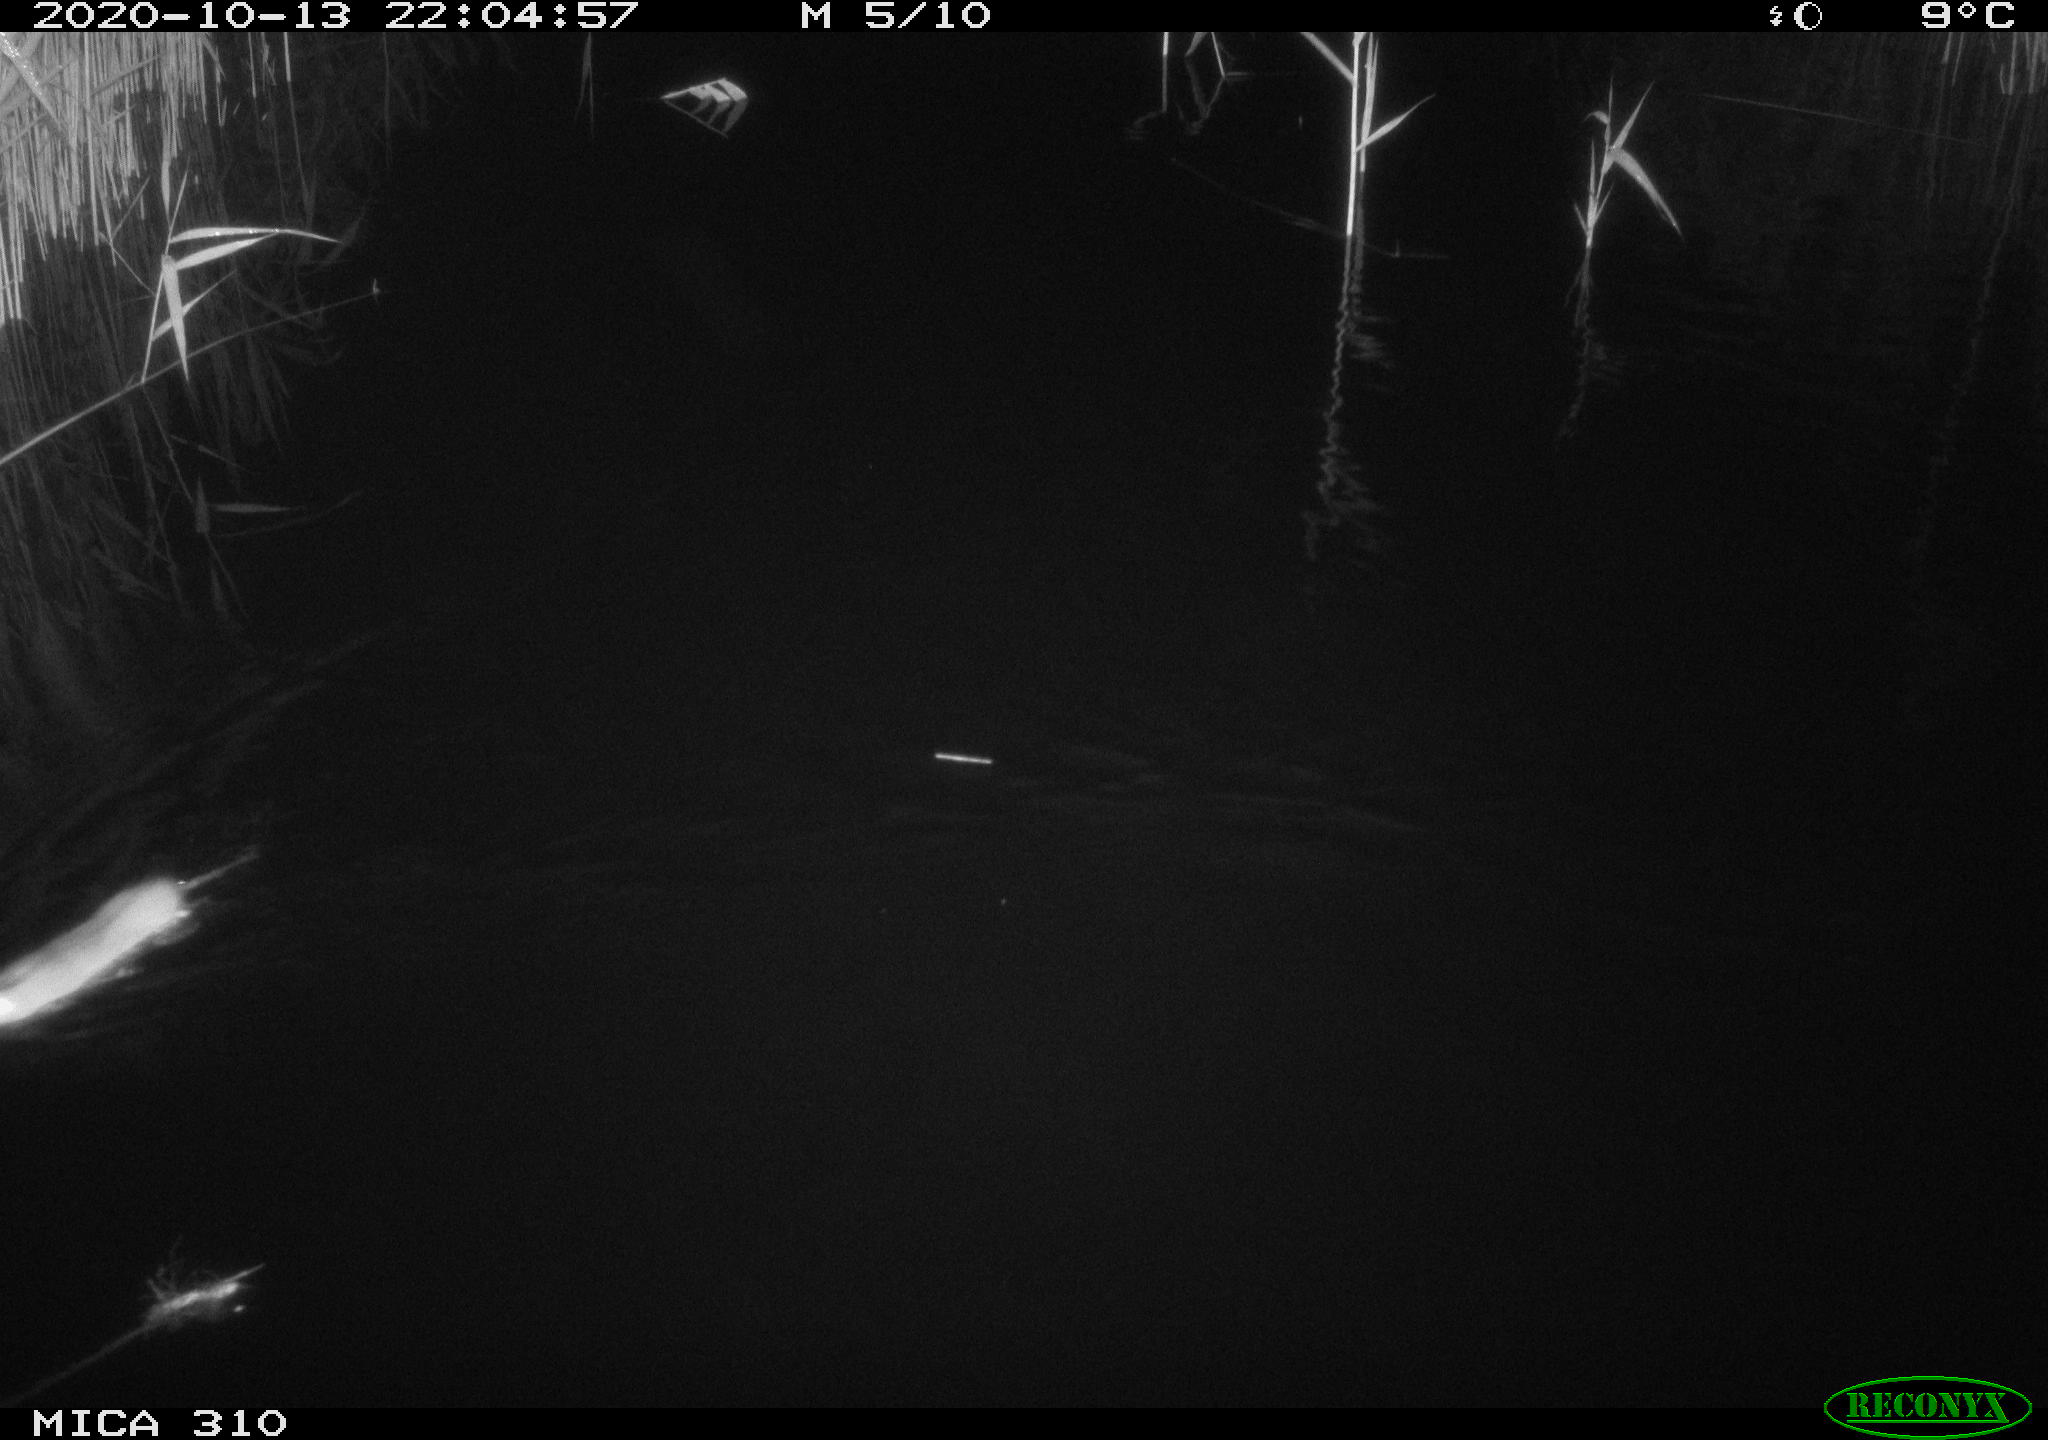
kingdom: Animalia
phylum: Chordata
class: Mammalia
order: Rodentia
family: Muridae
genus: Rattus
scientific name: Rattus norvegicus
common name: Brown rat
